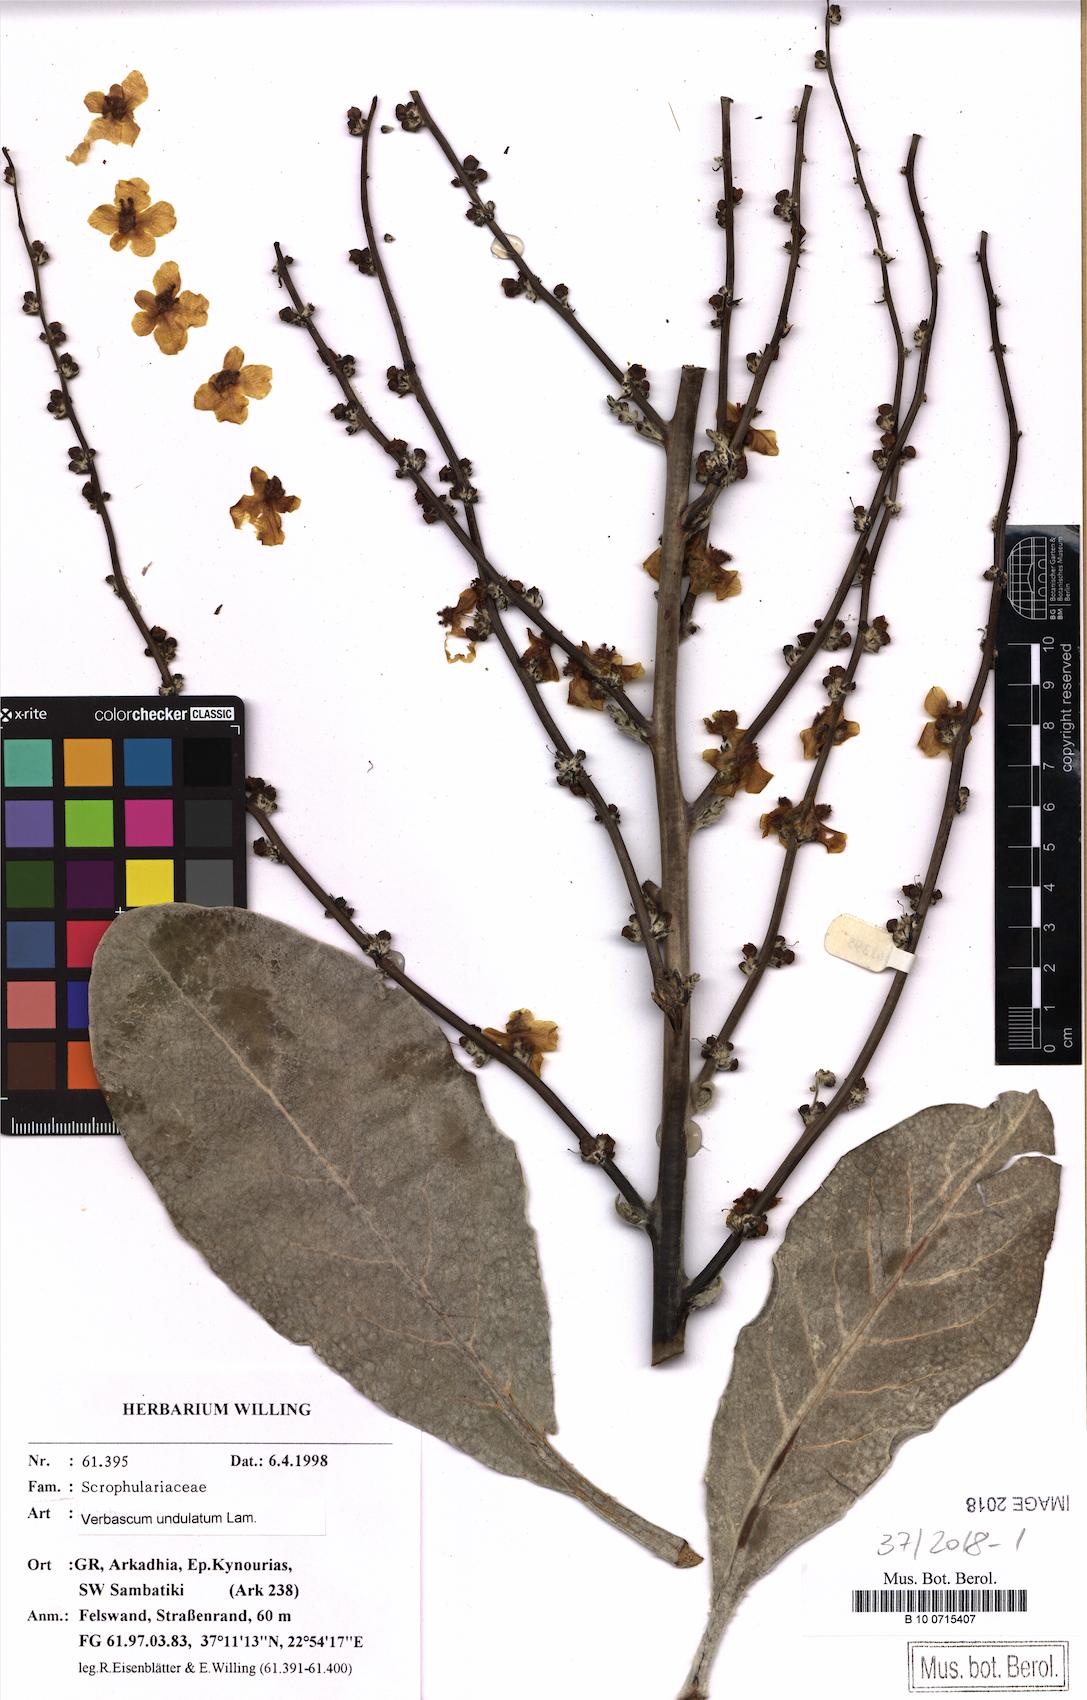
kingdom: Plantae
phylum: Tracheophyta
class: Magnoliopsida
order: Lamiales
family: Scrophulariaceae
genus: Verbascum
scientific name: Verbascum graecum
